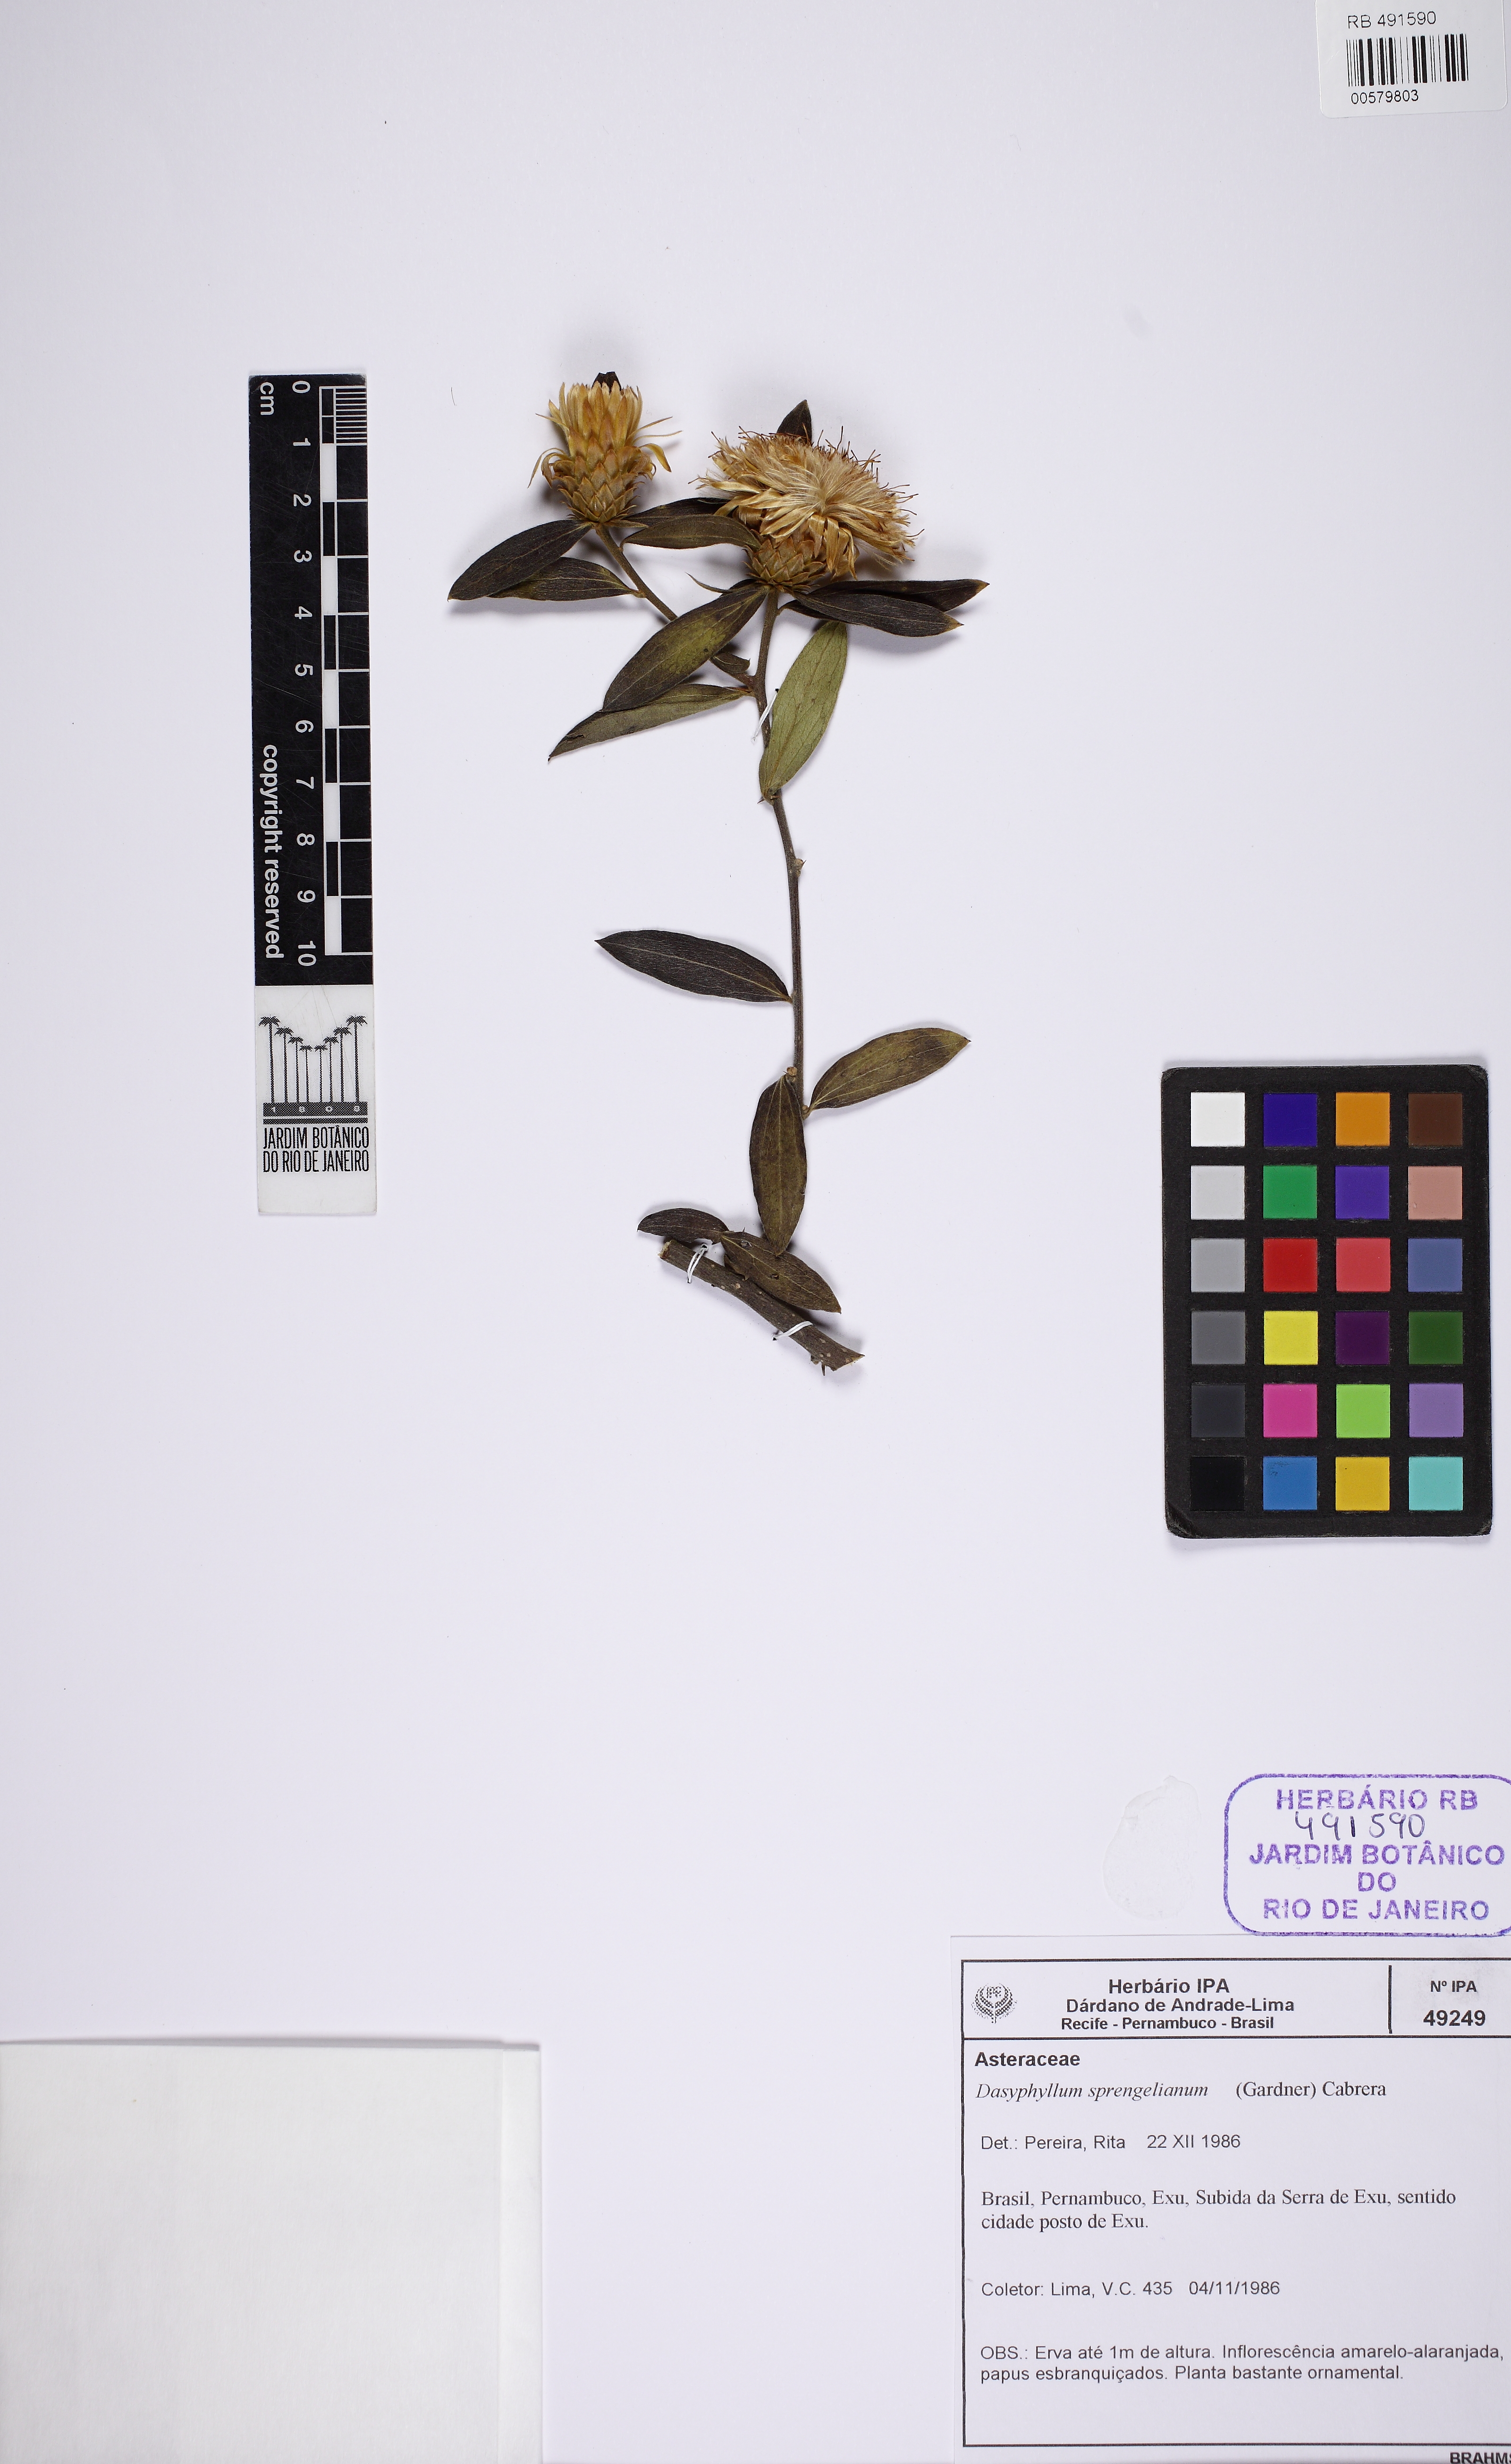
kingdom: Plantae
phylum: Tracheophyta
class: Magnoliopsida
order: Asterales
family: Asteraceae
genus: Dasyphyllum
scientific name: Dasyphyllum sprengelianum
